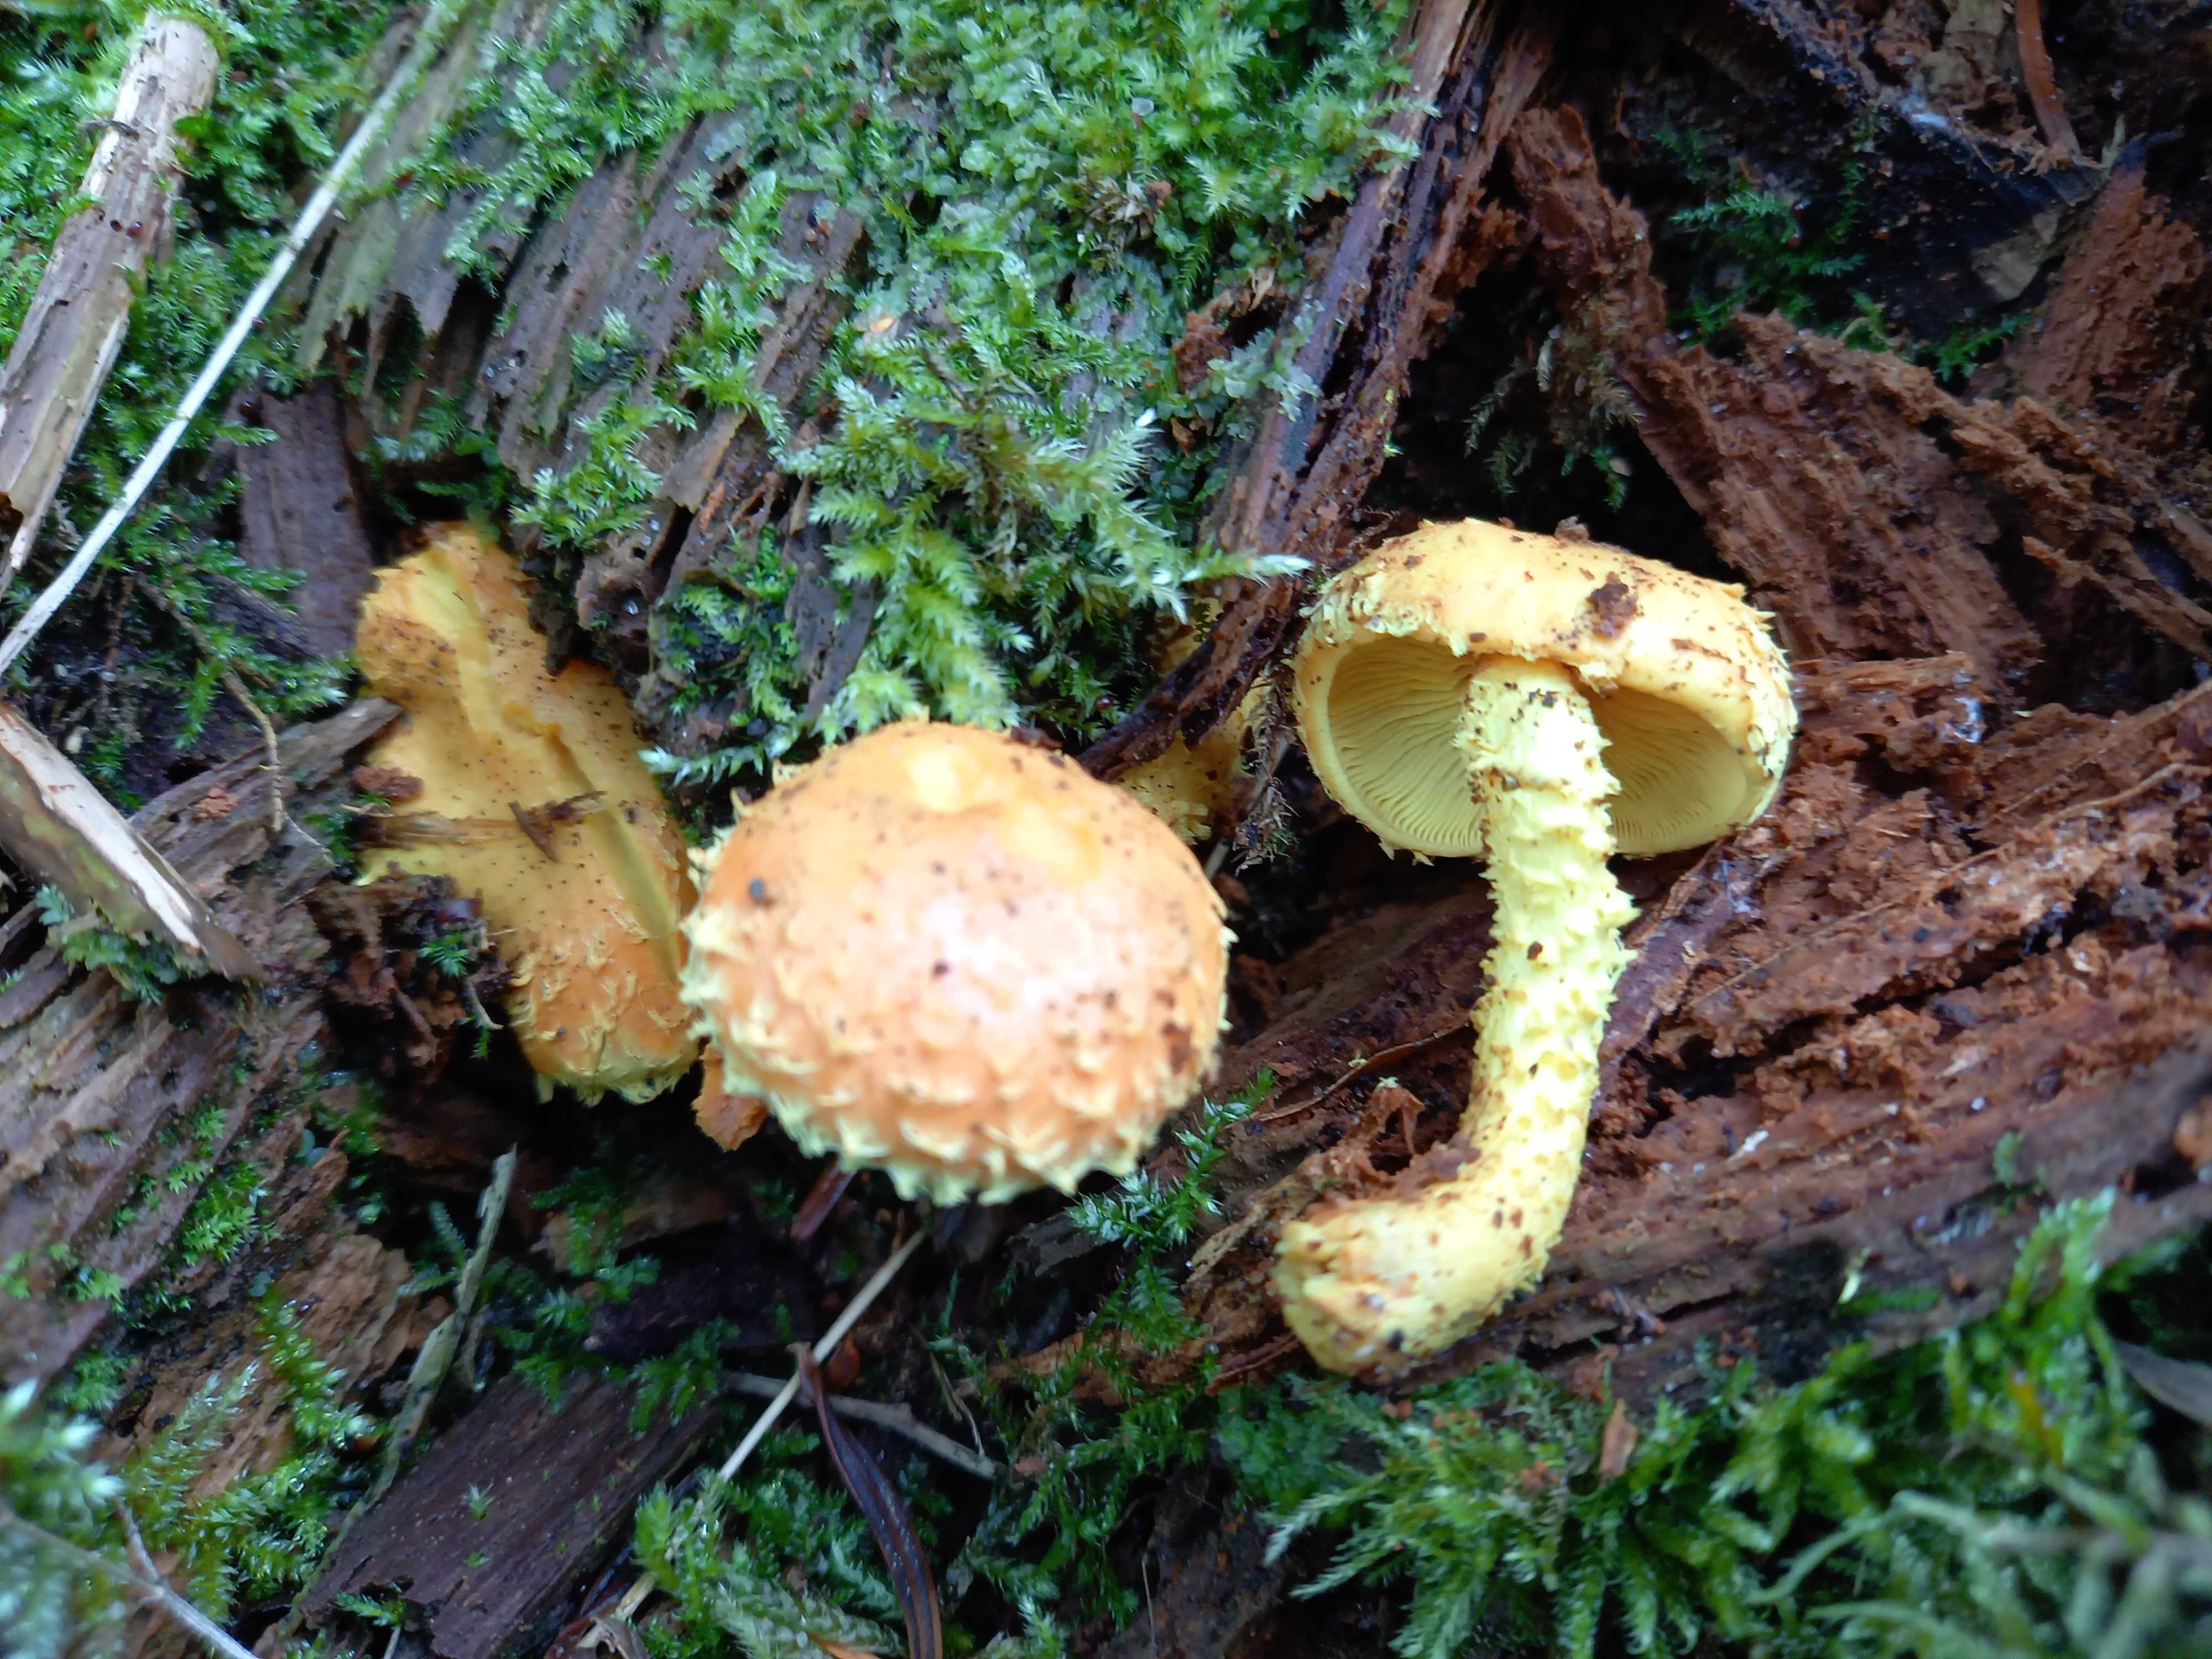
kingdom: Fungi
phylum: Basidiomycota
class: Agaricomycetes
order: Agaricales
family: Strophariaceae
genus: Pholiota
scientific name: Pholiota flammans
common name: flamme-skælhat
